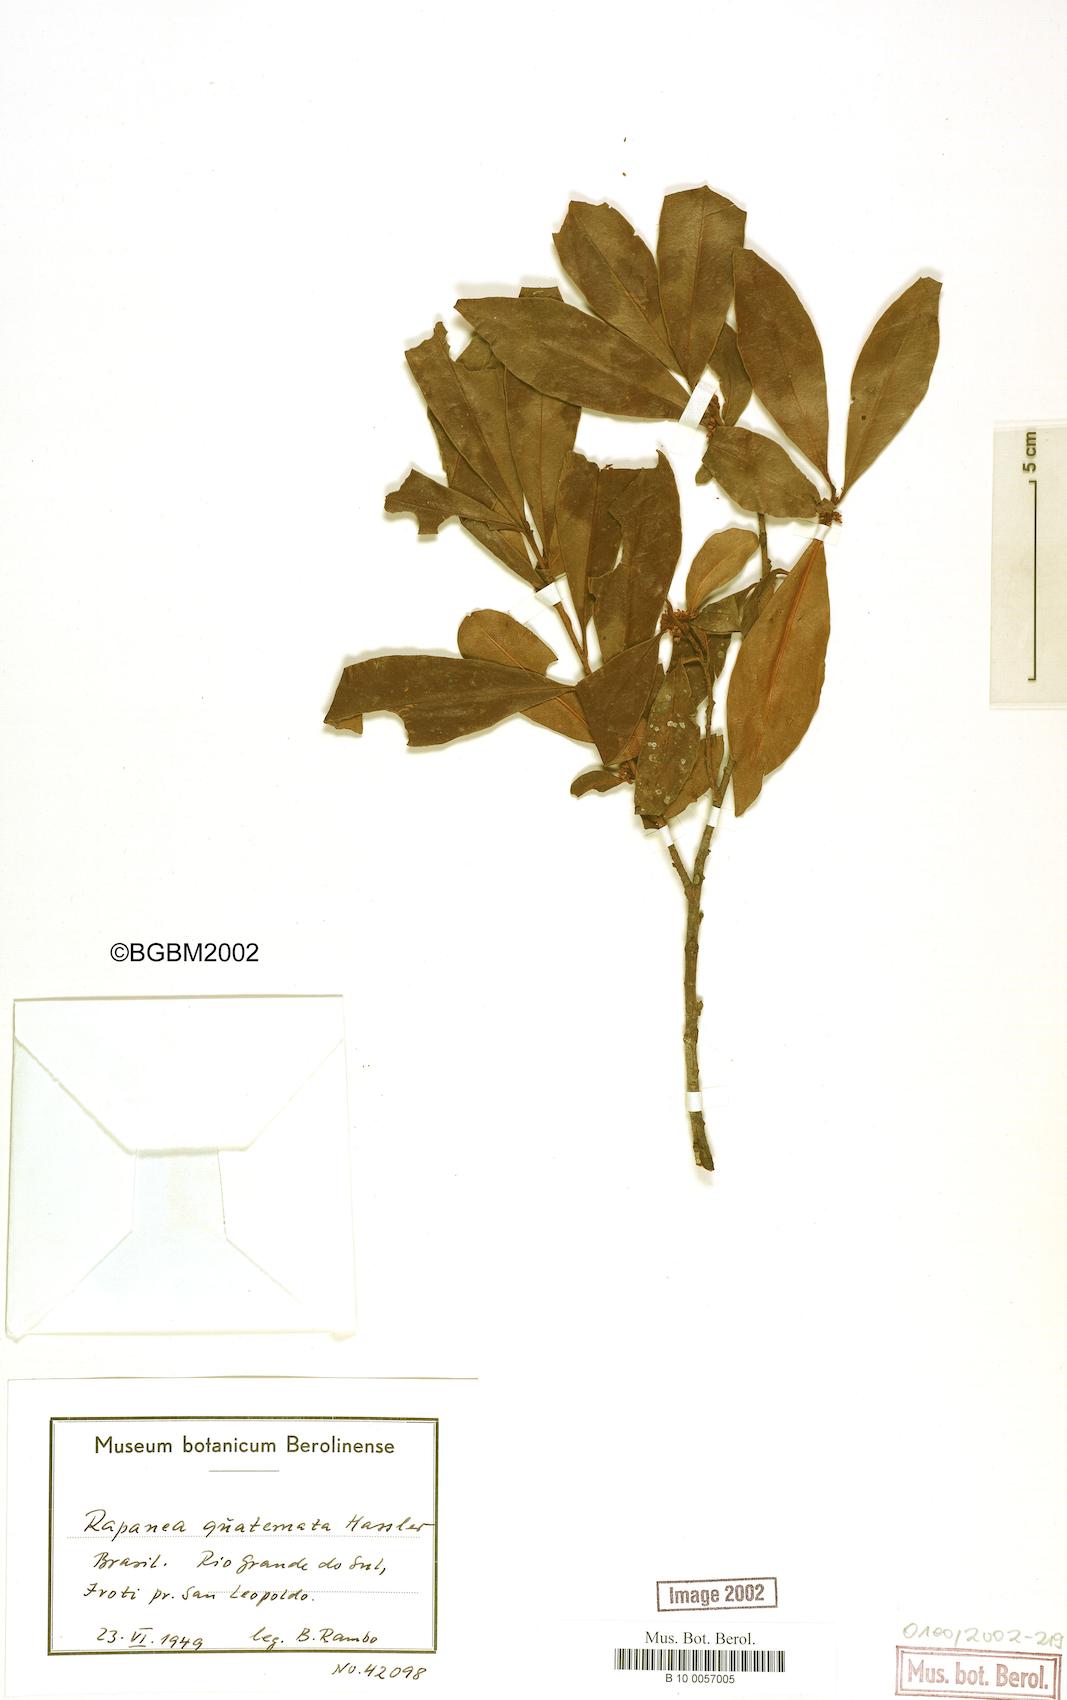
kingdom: Plantae
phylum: Tracheophyta
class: Magnoliopsida
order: Ericales
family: Primulaceae
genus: Myrsine
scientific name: Myrsine loefgrenii
